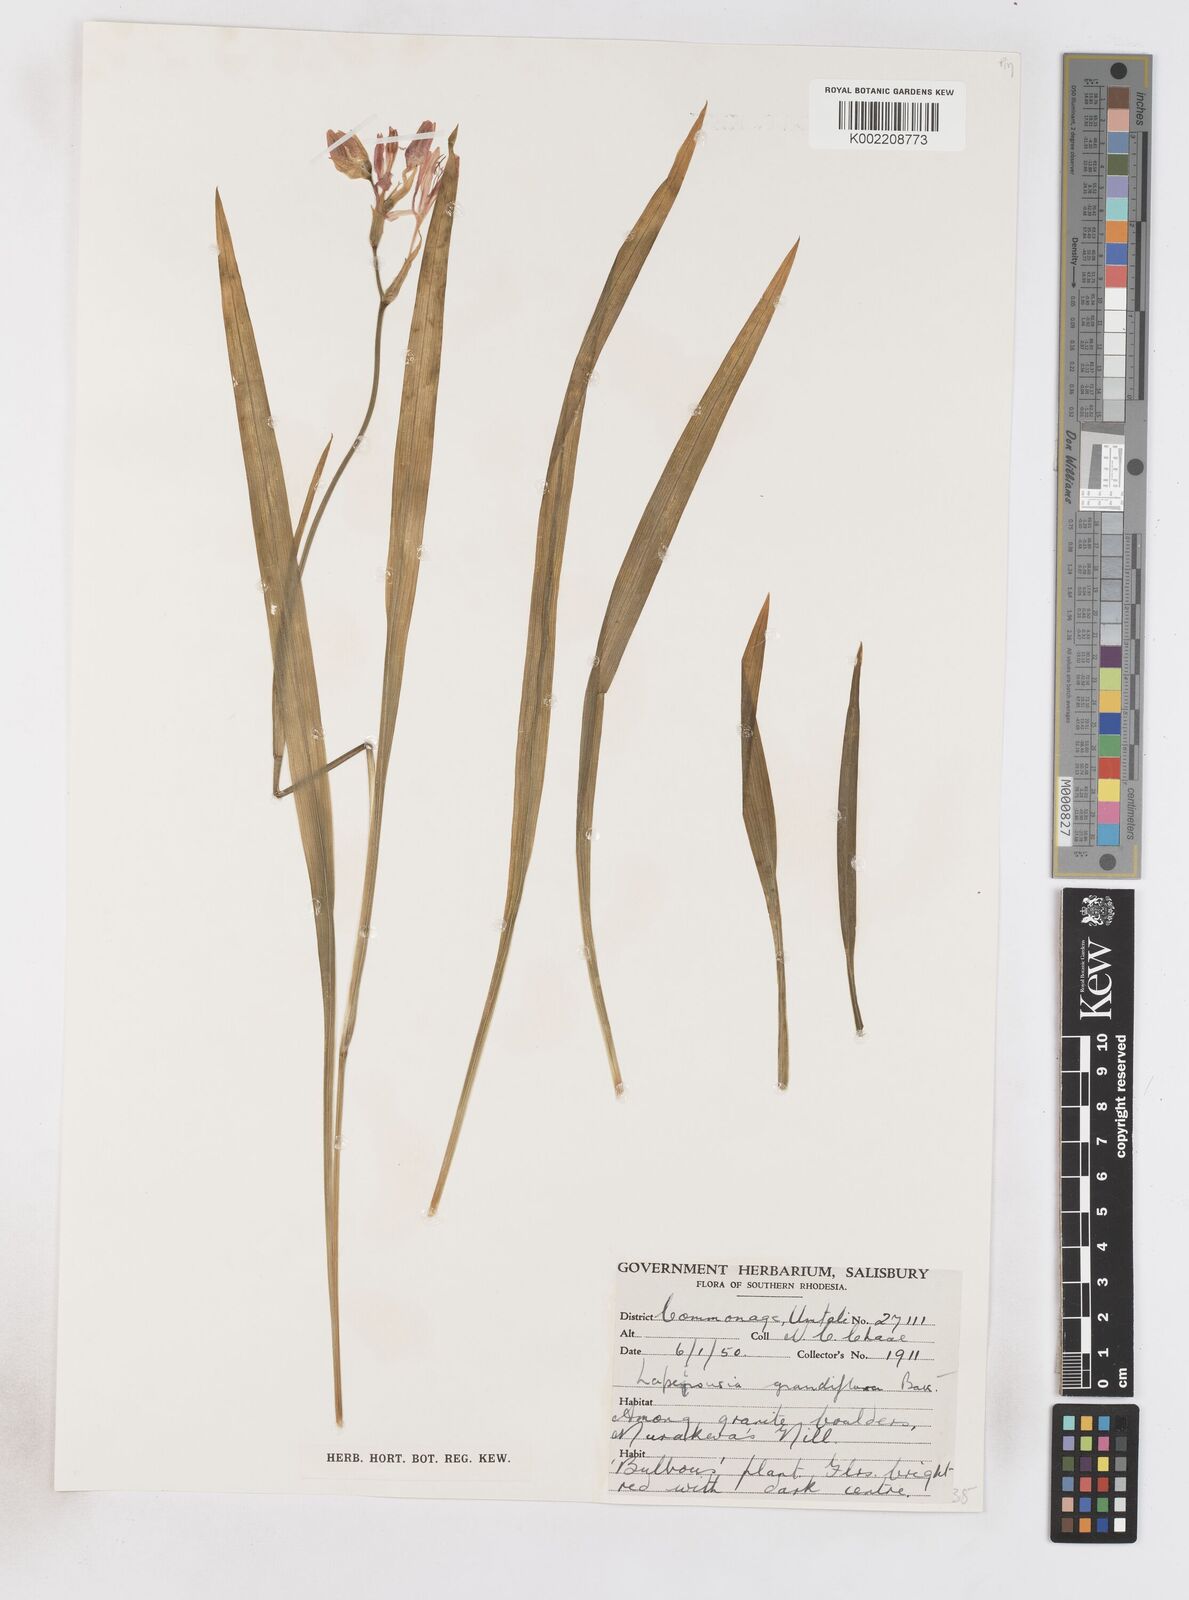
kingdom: Plantae
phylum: Tracheophyta
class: Liliopsida
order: Asparagales
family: Iridaceae
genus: Freesia
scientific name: Freesia grandiflora
